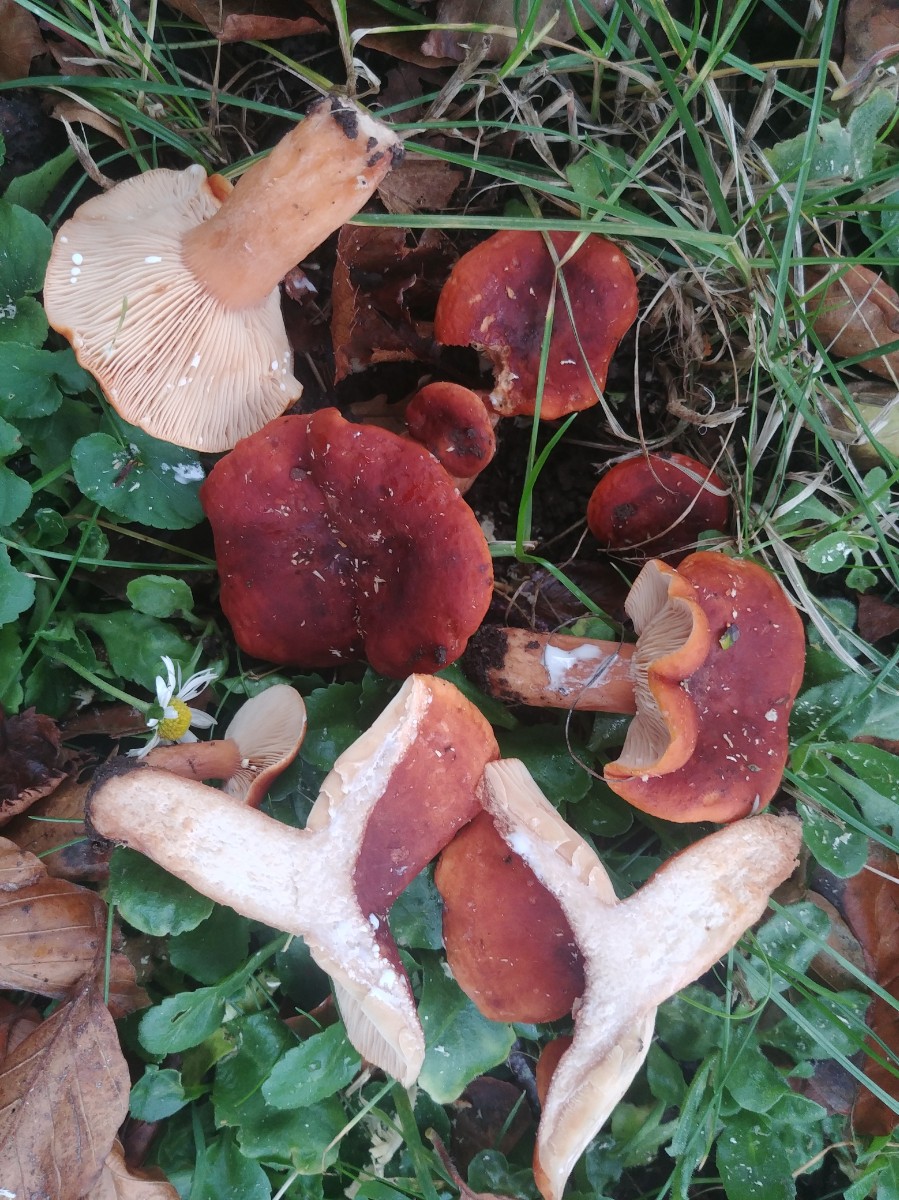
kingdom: Fungi
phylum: Basidiomycota
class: Agaricomycetes
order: Russulales
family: Russulaceae
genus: Lactarius
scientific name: Lactarius fulvissimus
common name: ræve-mælkehat
